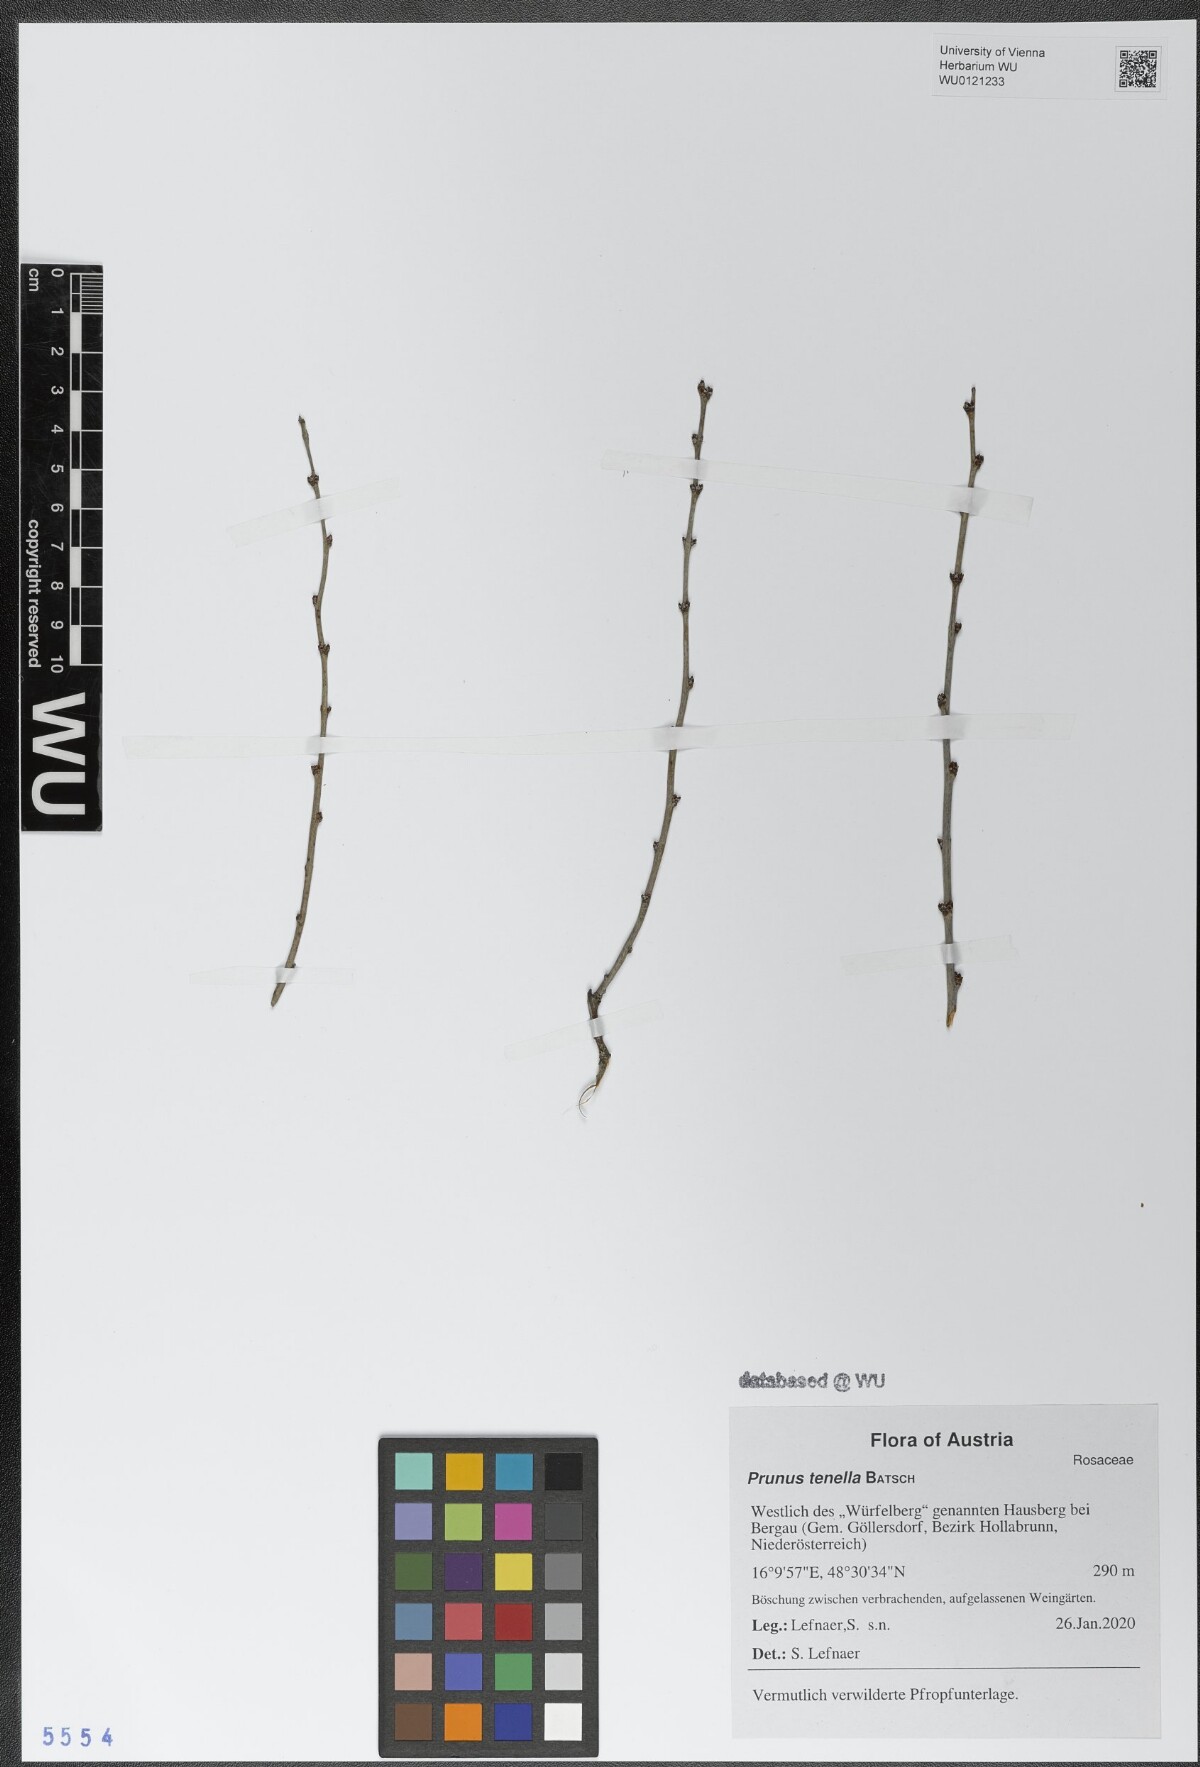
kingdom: Plantae
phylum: Tracheophyta
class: Magnoliopsida
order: Rosales
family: Rosaceae
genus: Prunus
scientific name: Prunus tenella
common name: Dwarf russian almond
